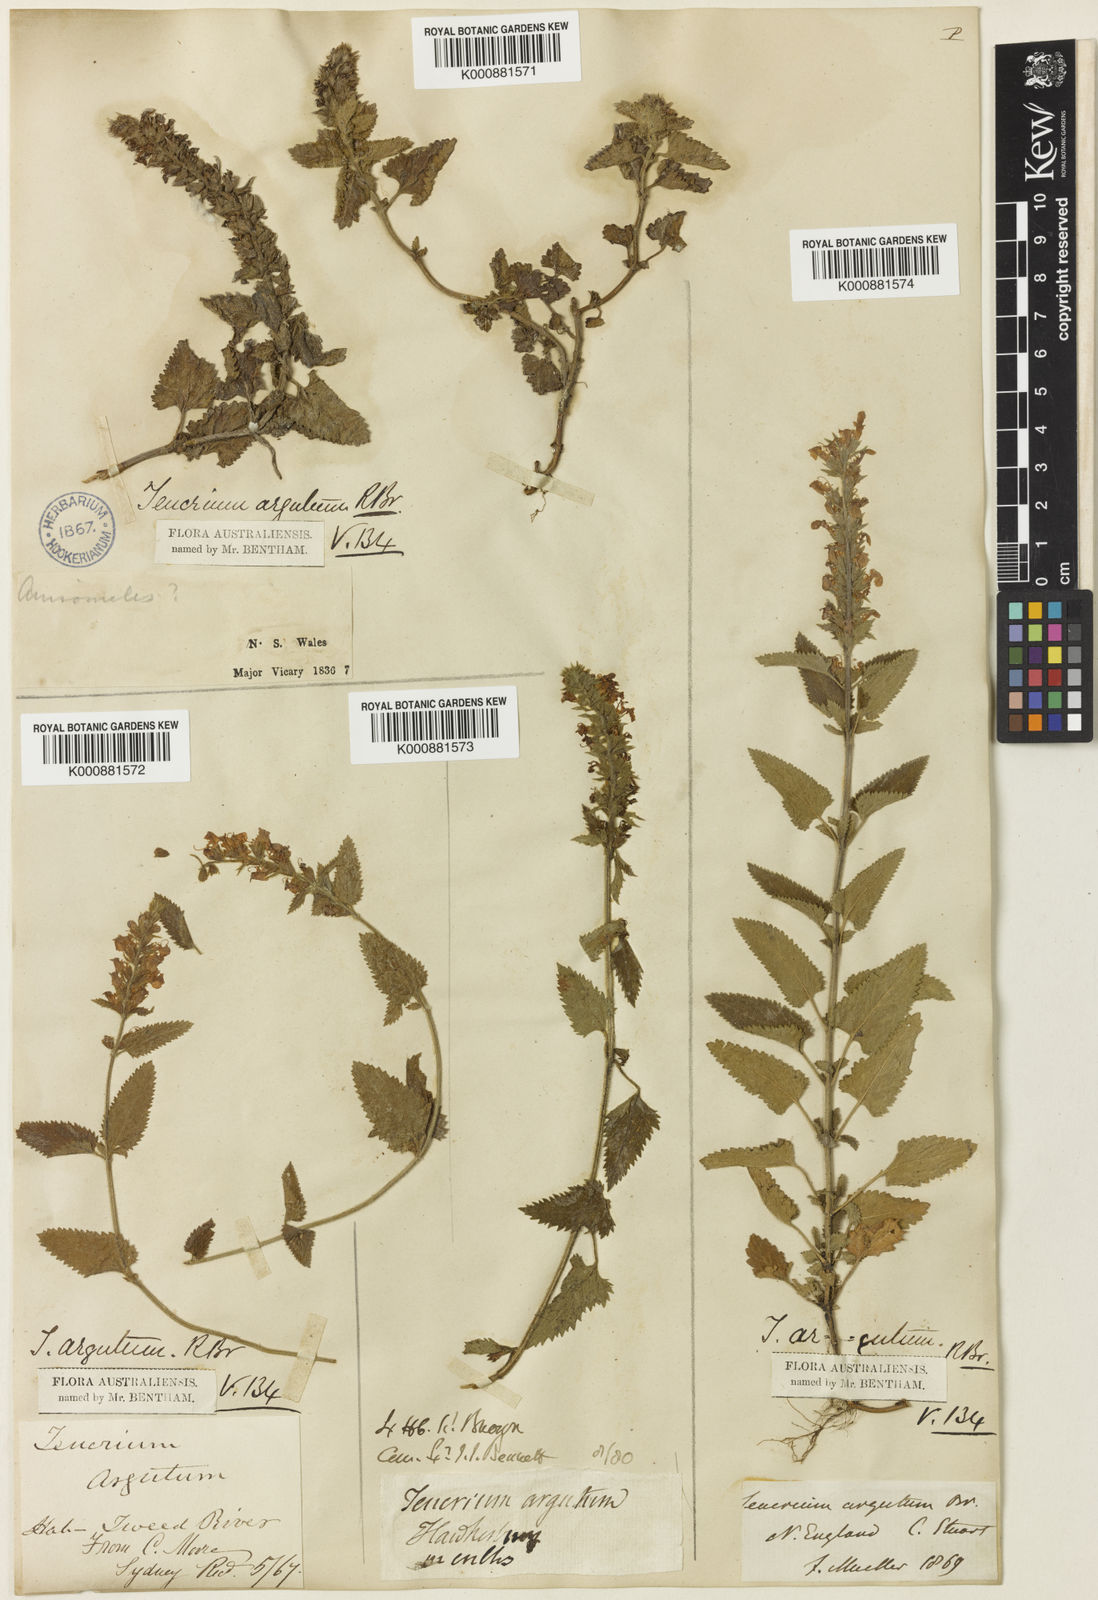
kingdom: Plantae
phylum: Tracheophyta
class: Magnoliopsida
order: Lamiales
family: Lamiaceae
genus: Teucrium
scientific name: Teucrium argutum
